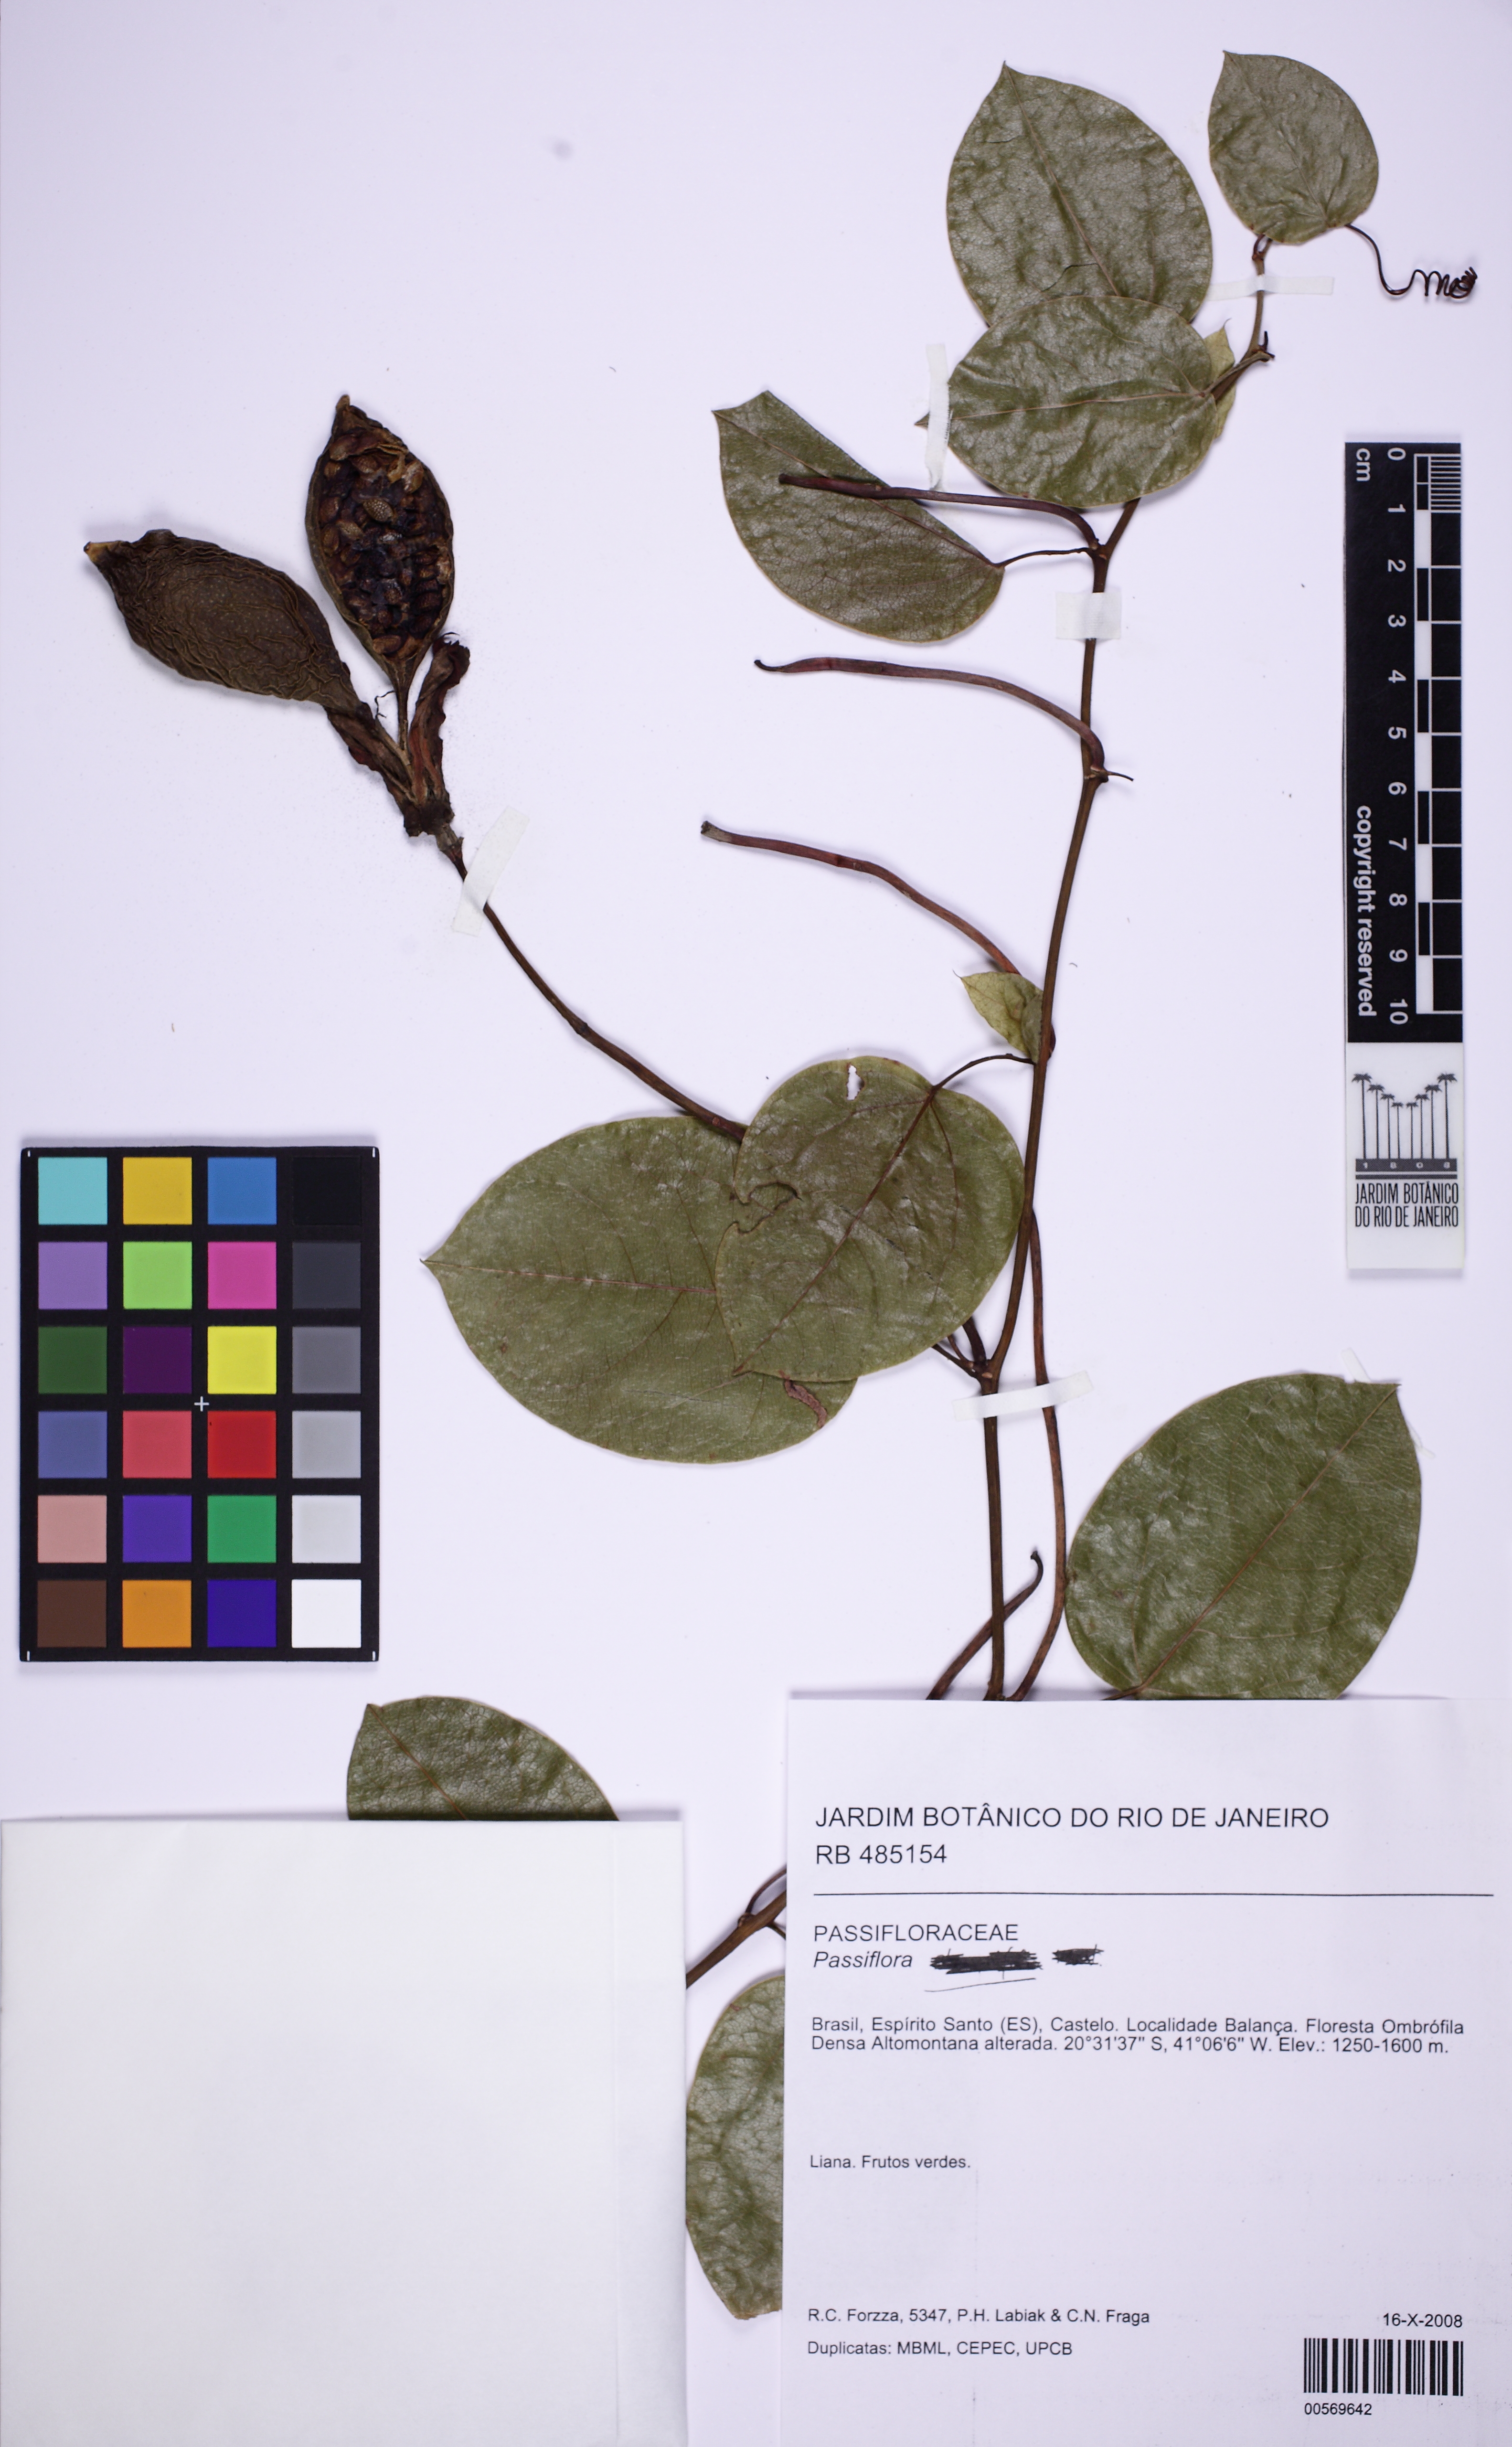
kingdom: Plantae
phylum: Tracheophyta
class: Magnoliopsida
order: Malpighiales
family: Passifloraceae
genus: Passiflora
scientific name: Passiflora
